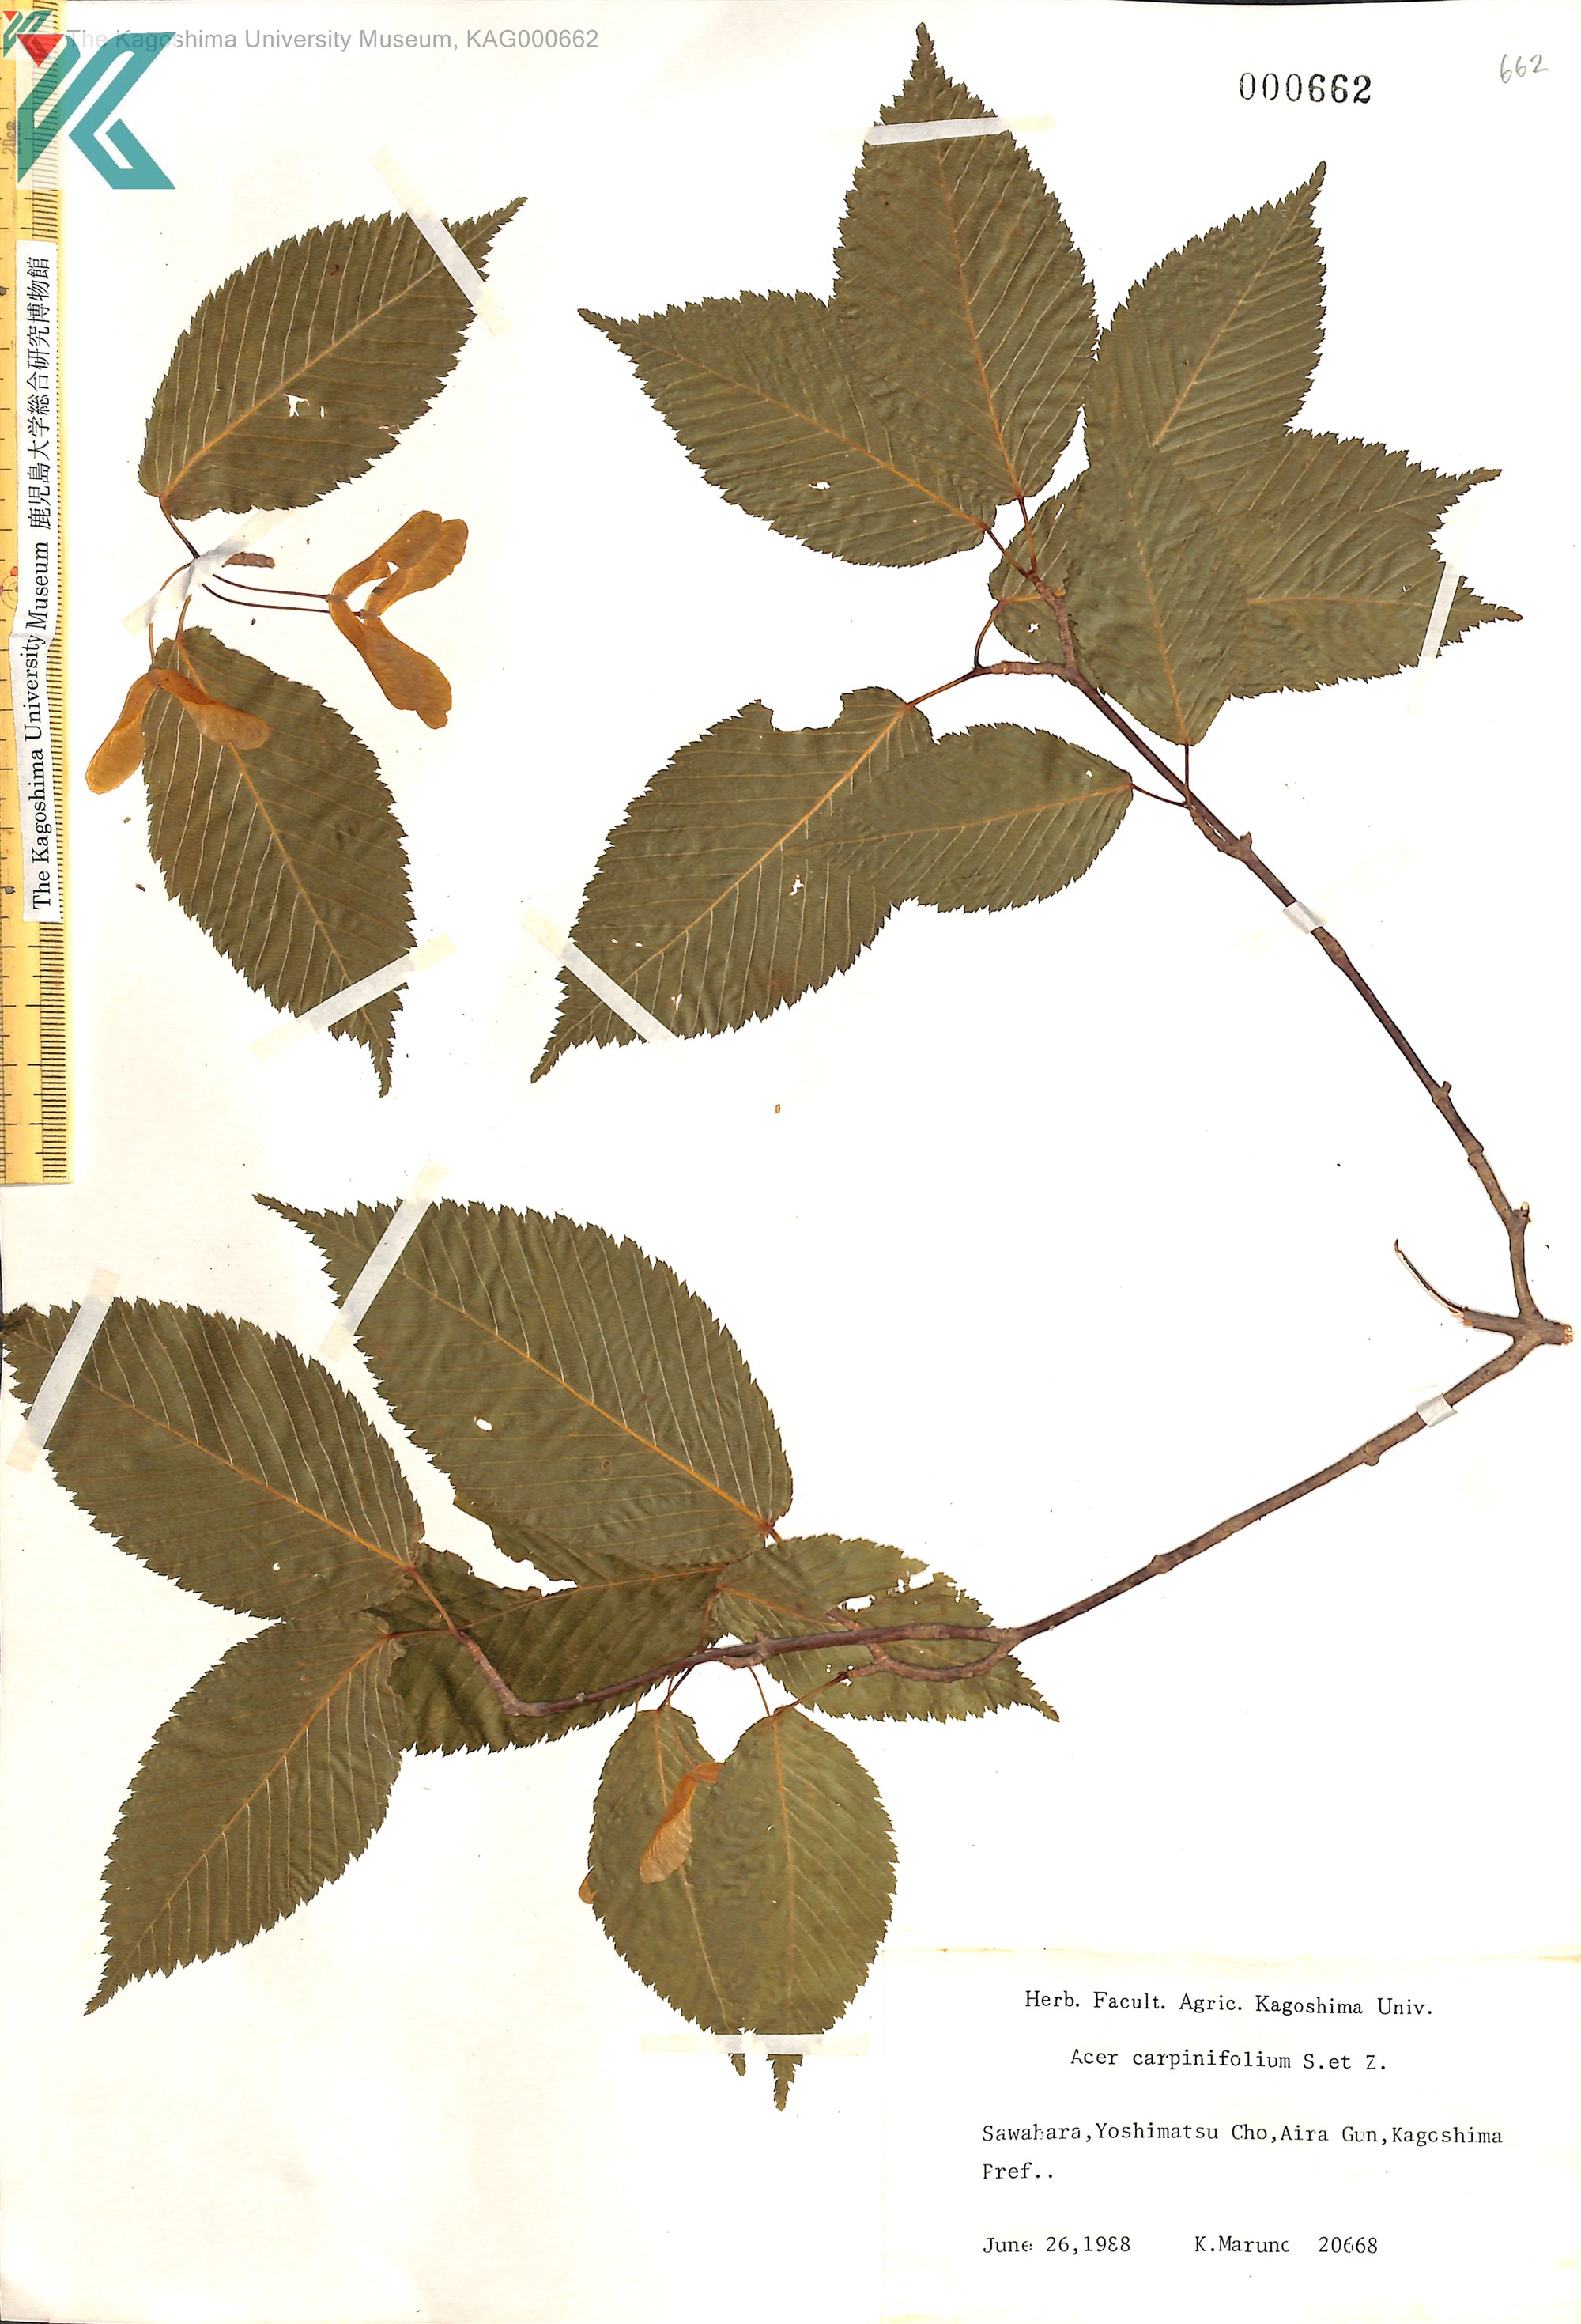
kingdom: Plantae
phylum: Tracheophyta
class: Magnoliopsida
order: Sapindales
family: Sapindaceae
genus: Acer
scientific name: Acer carpinifolium
